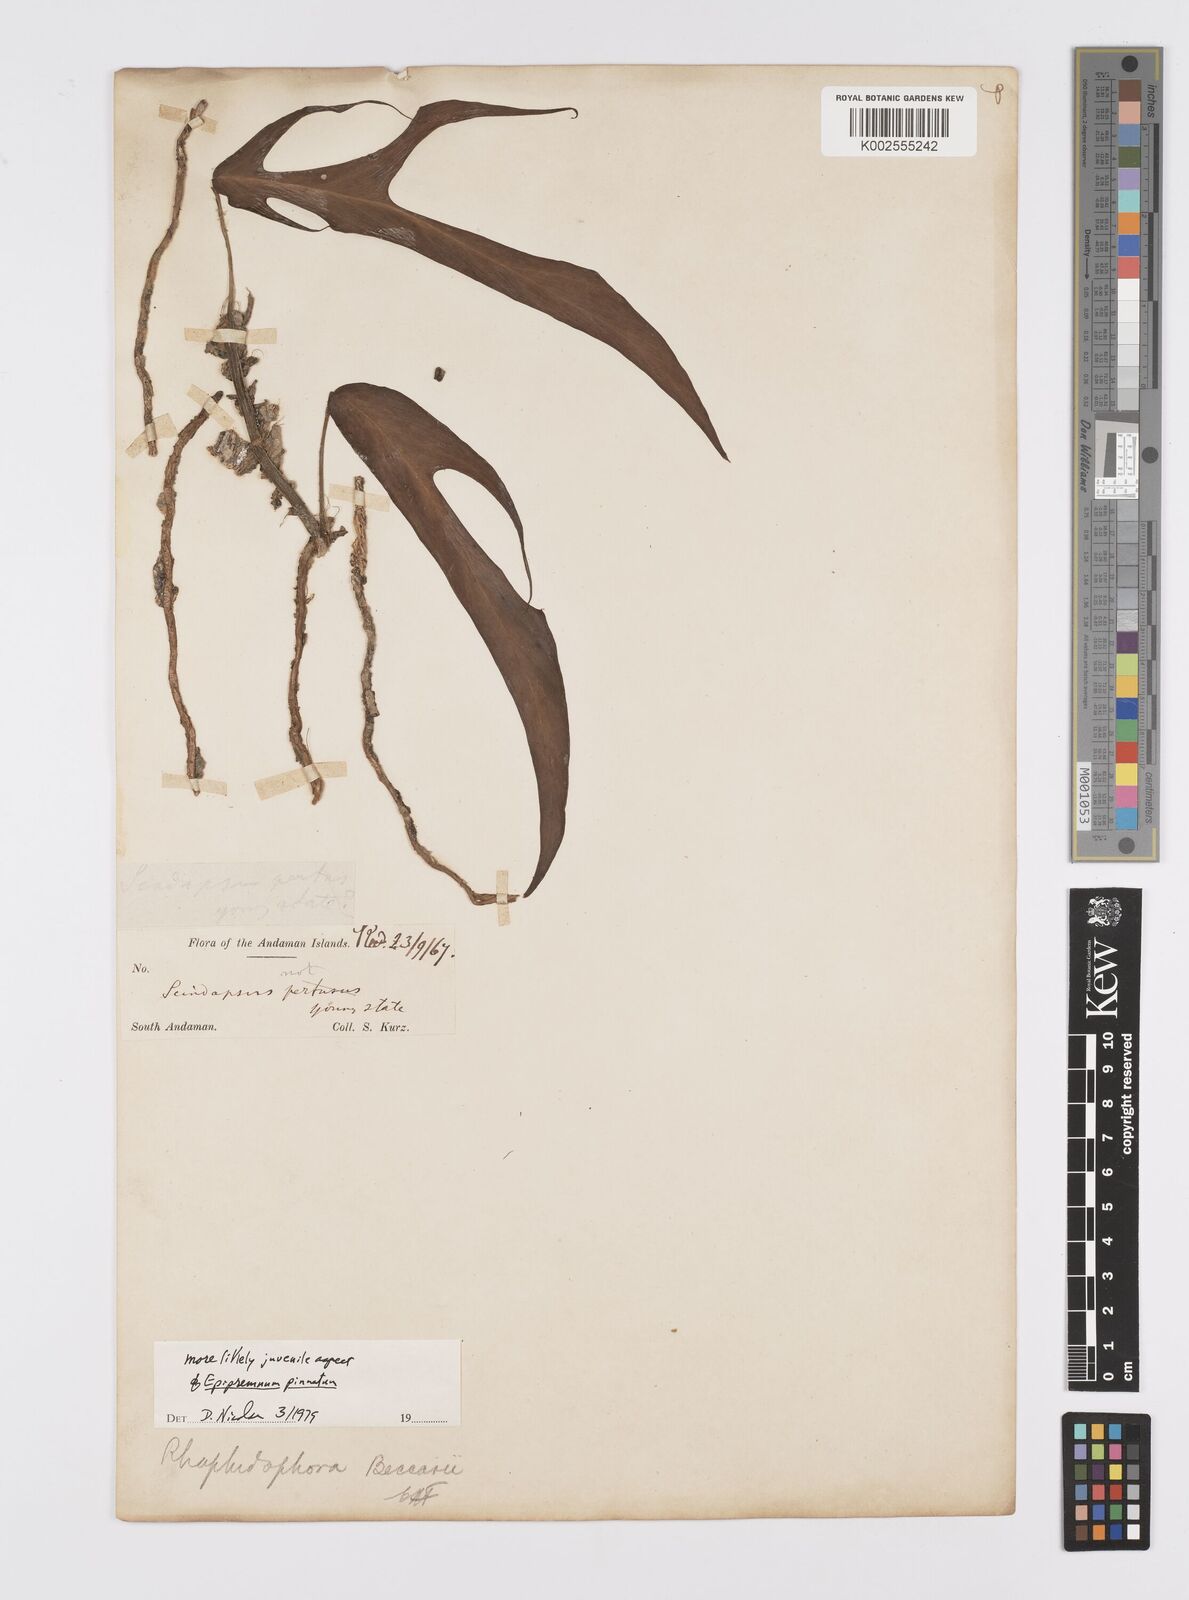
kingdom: Plantae
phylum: Tracheophyta
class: Liliopsida
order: Alismatales
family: Araceae
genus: Epipremnum
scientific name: Epipremnum pinnatum
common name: Centipede tongavine
